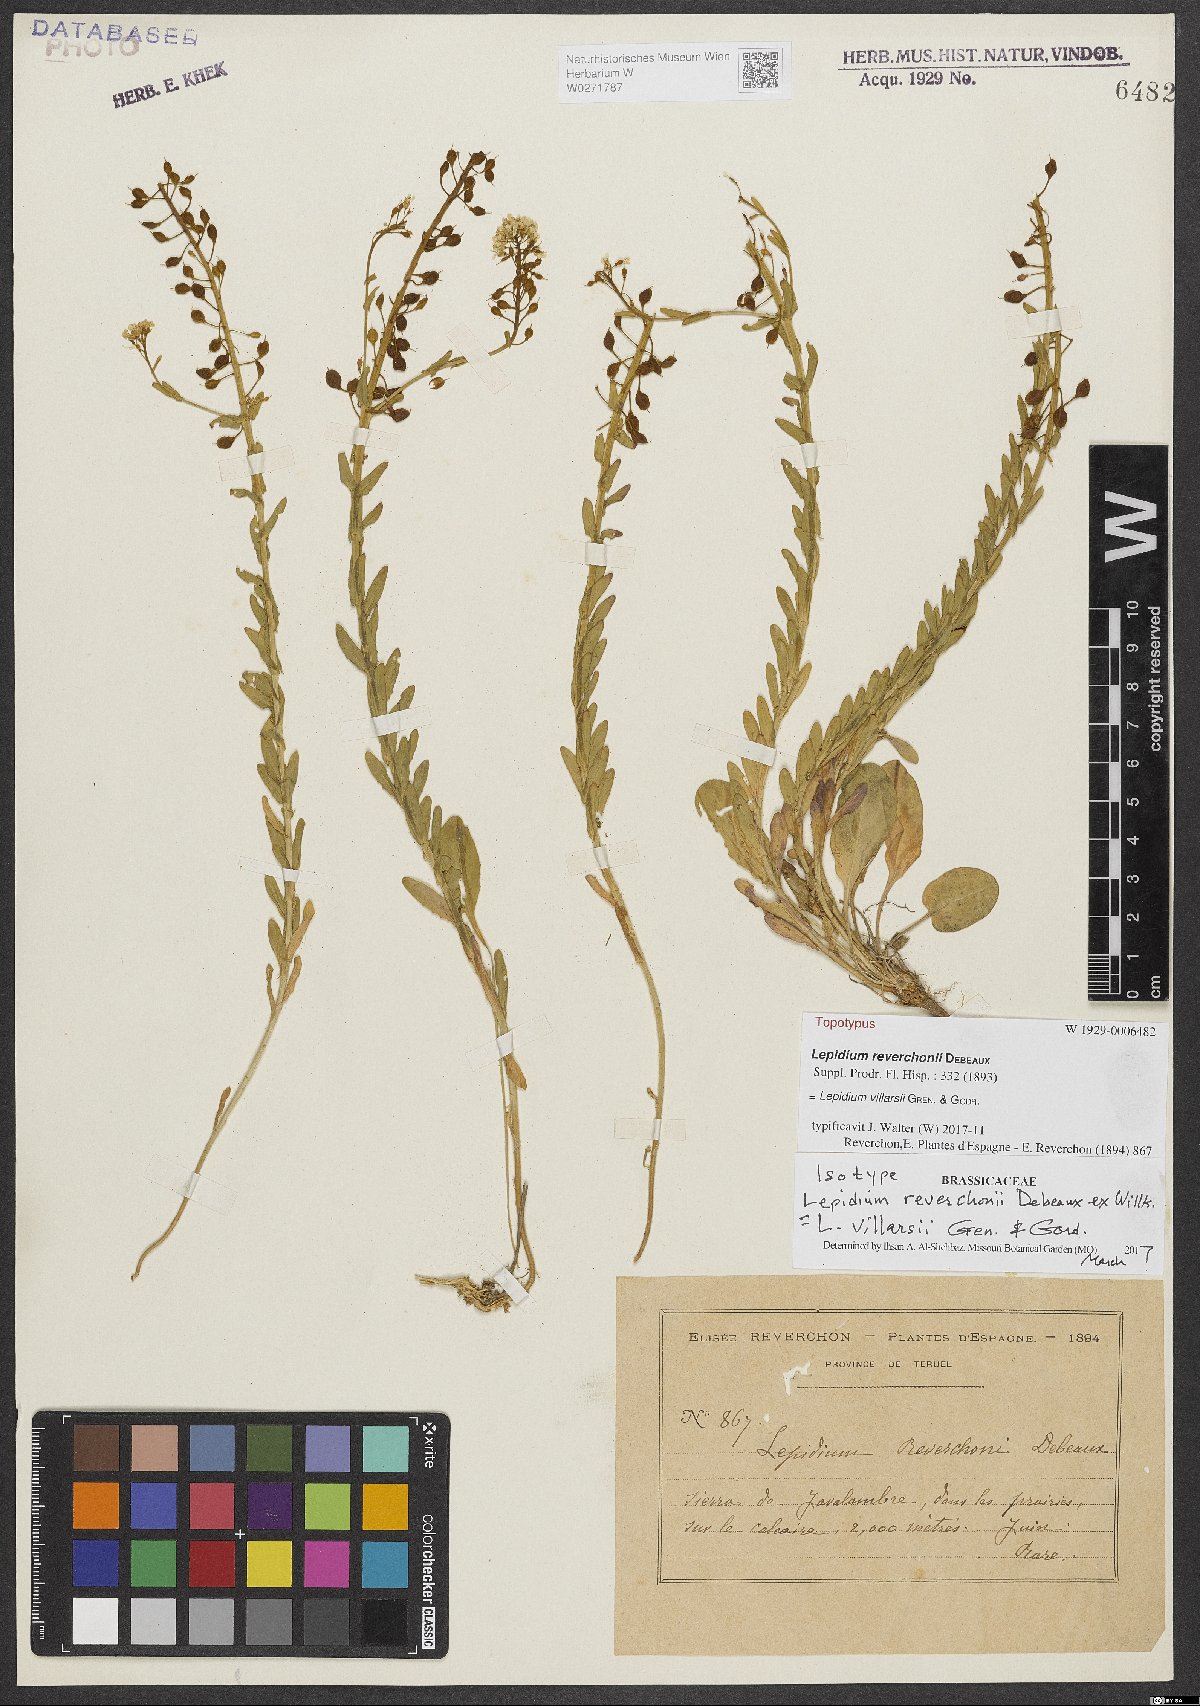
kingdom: Plantae
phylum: Tracheophyta
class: Magnoliopsida
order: Brassicales
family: Brassicaceae
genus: Lepidium
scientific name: Lepidium villarsii
